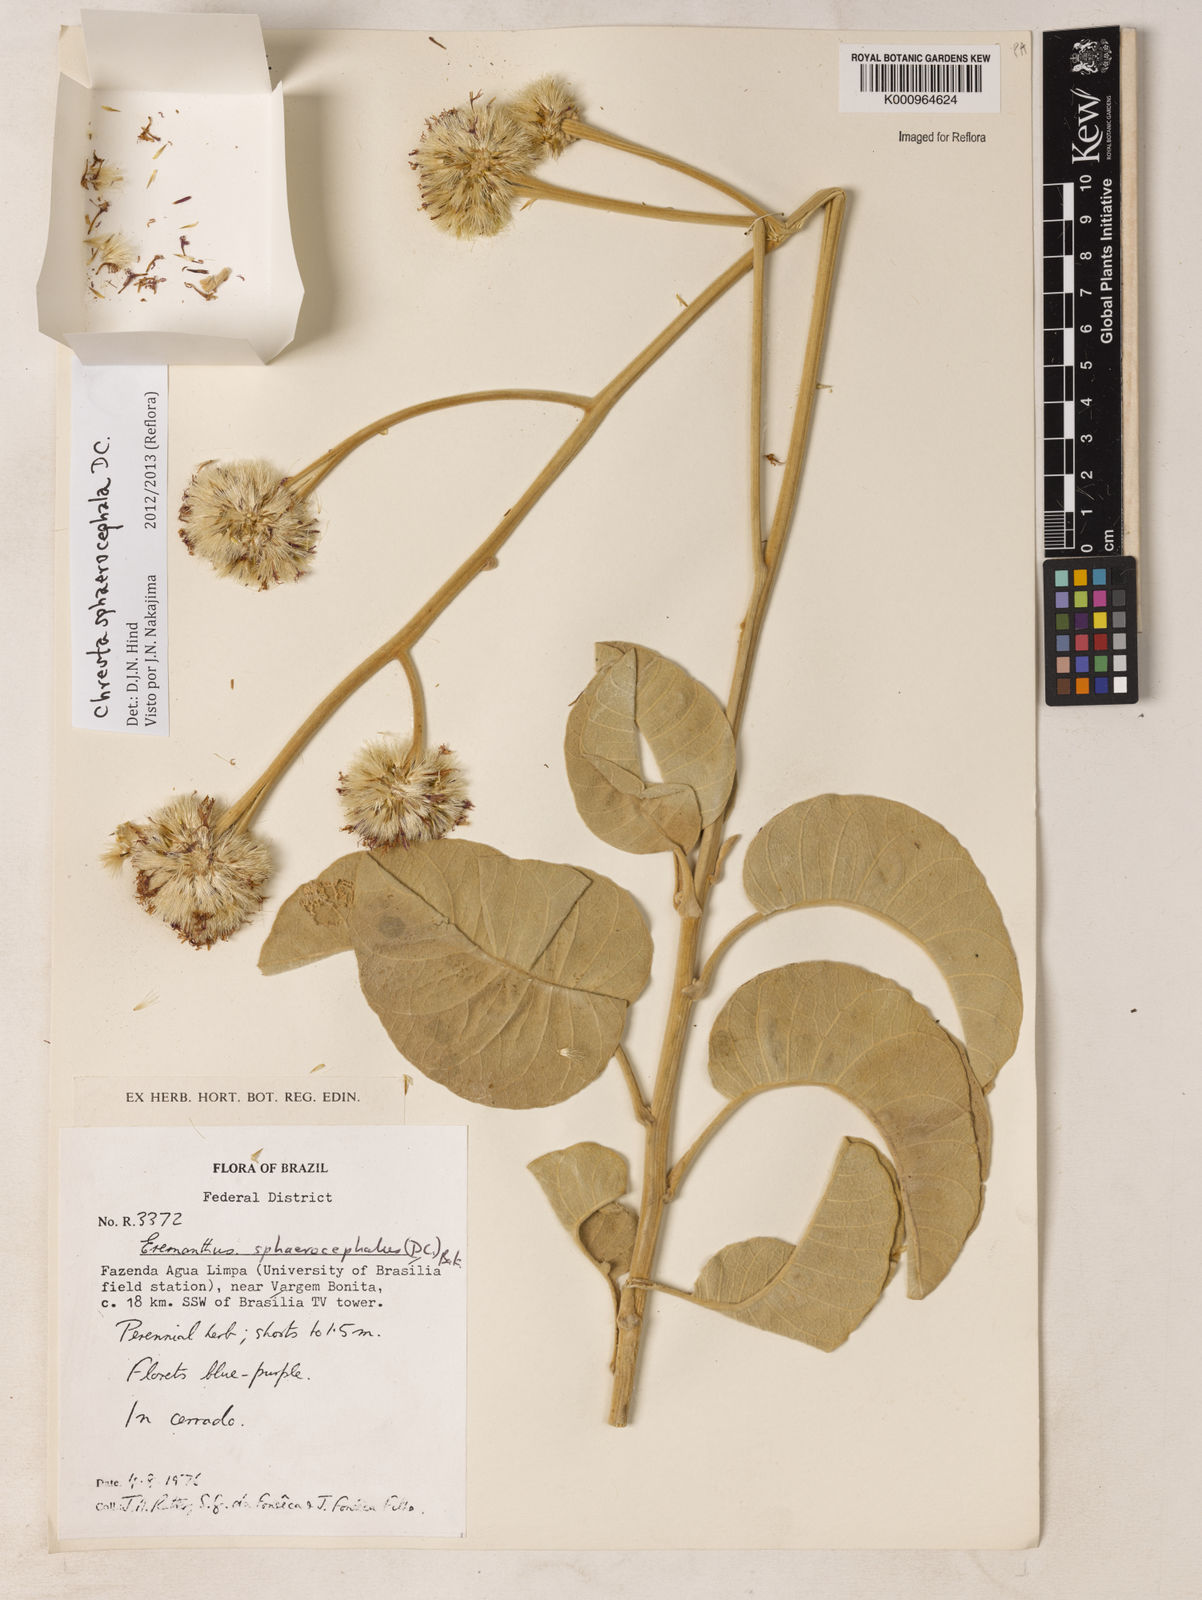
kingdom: Plantae
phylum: Tracheophyta
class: Magnoliopsida
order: Asterales
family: Asteraceae
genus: Chresta
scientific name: Chresta sphaerocephala
